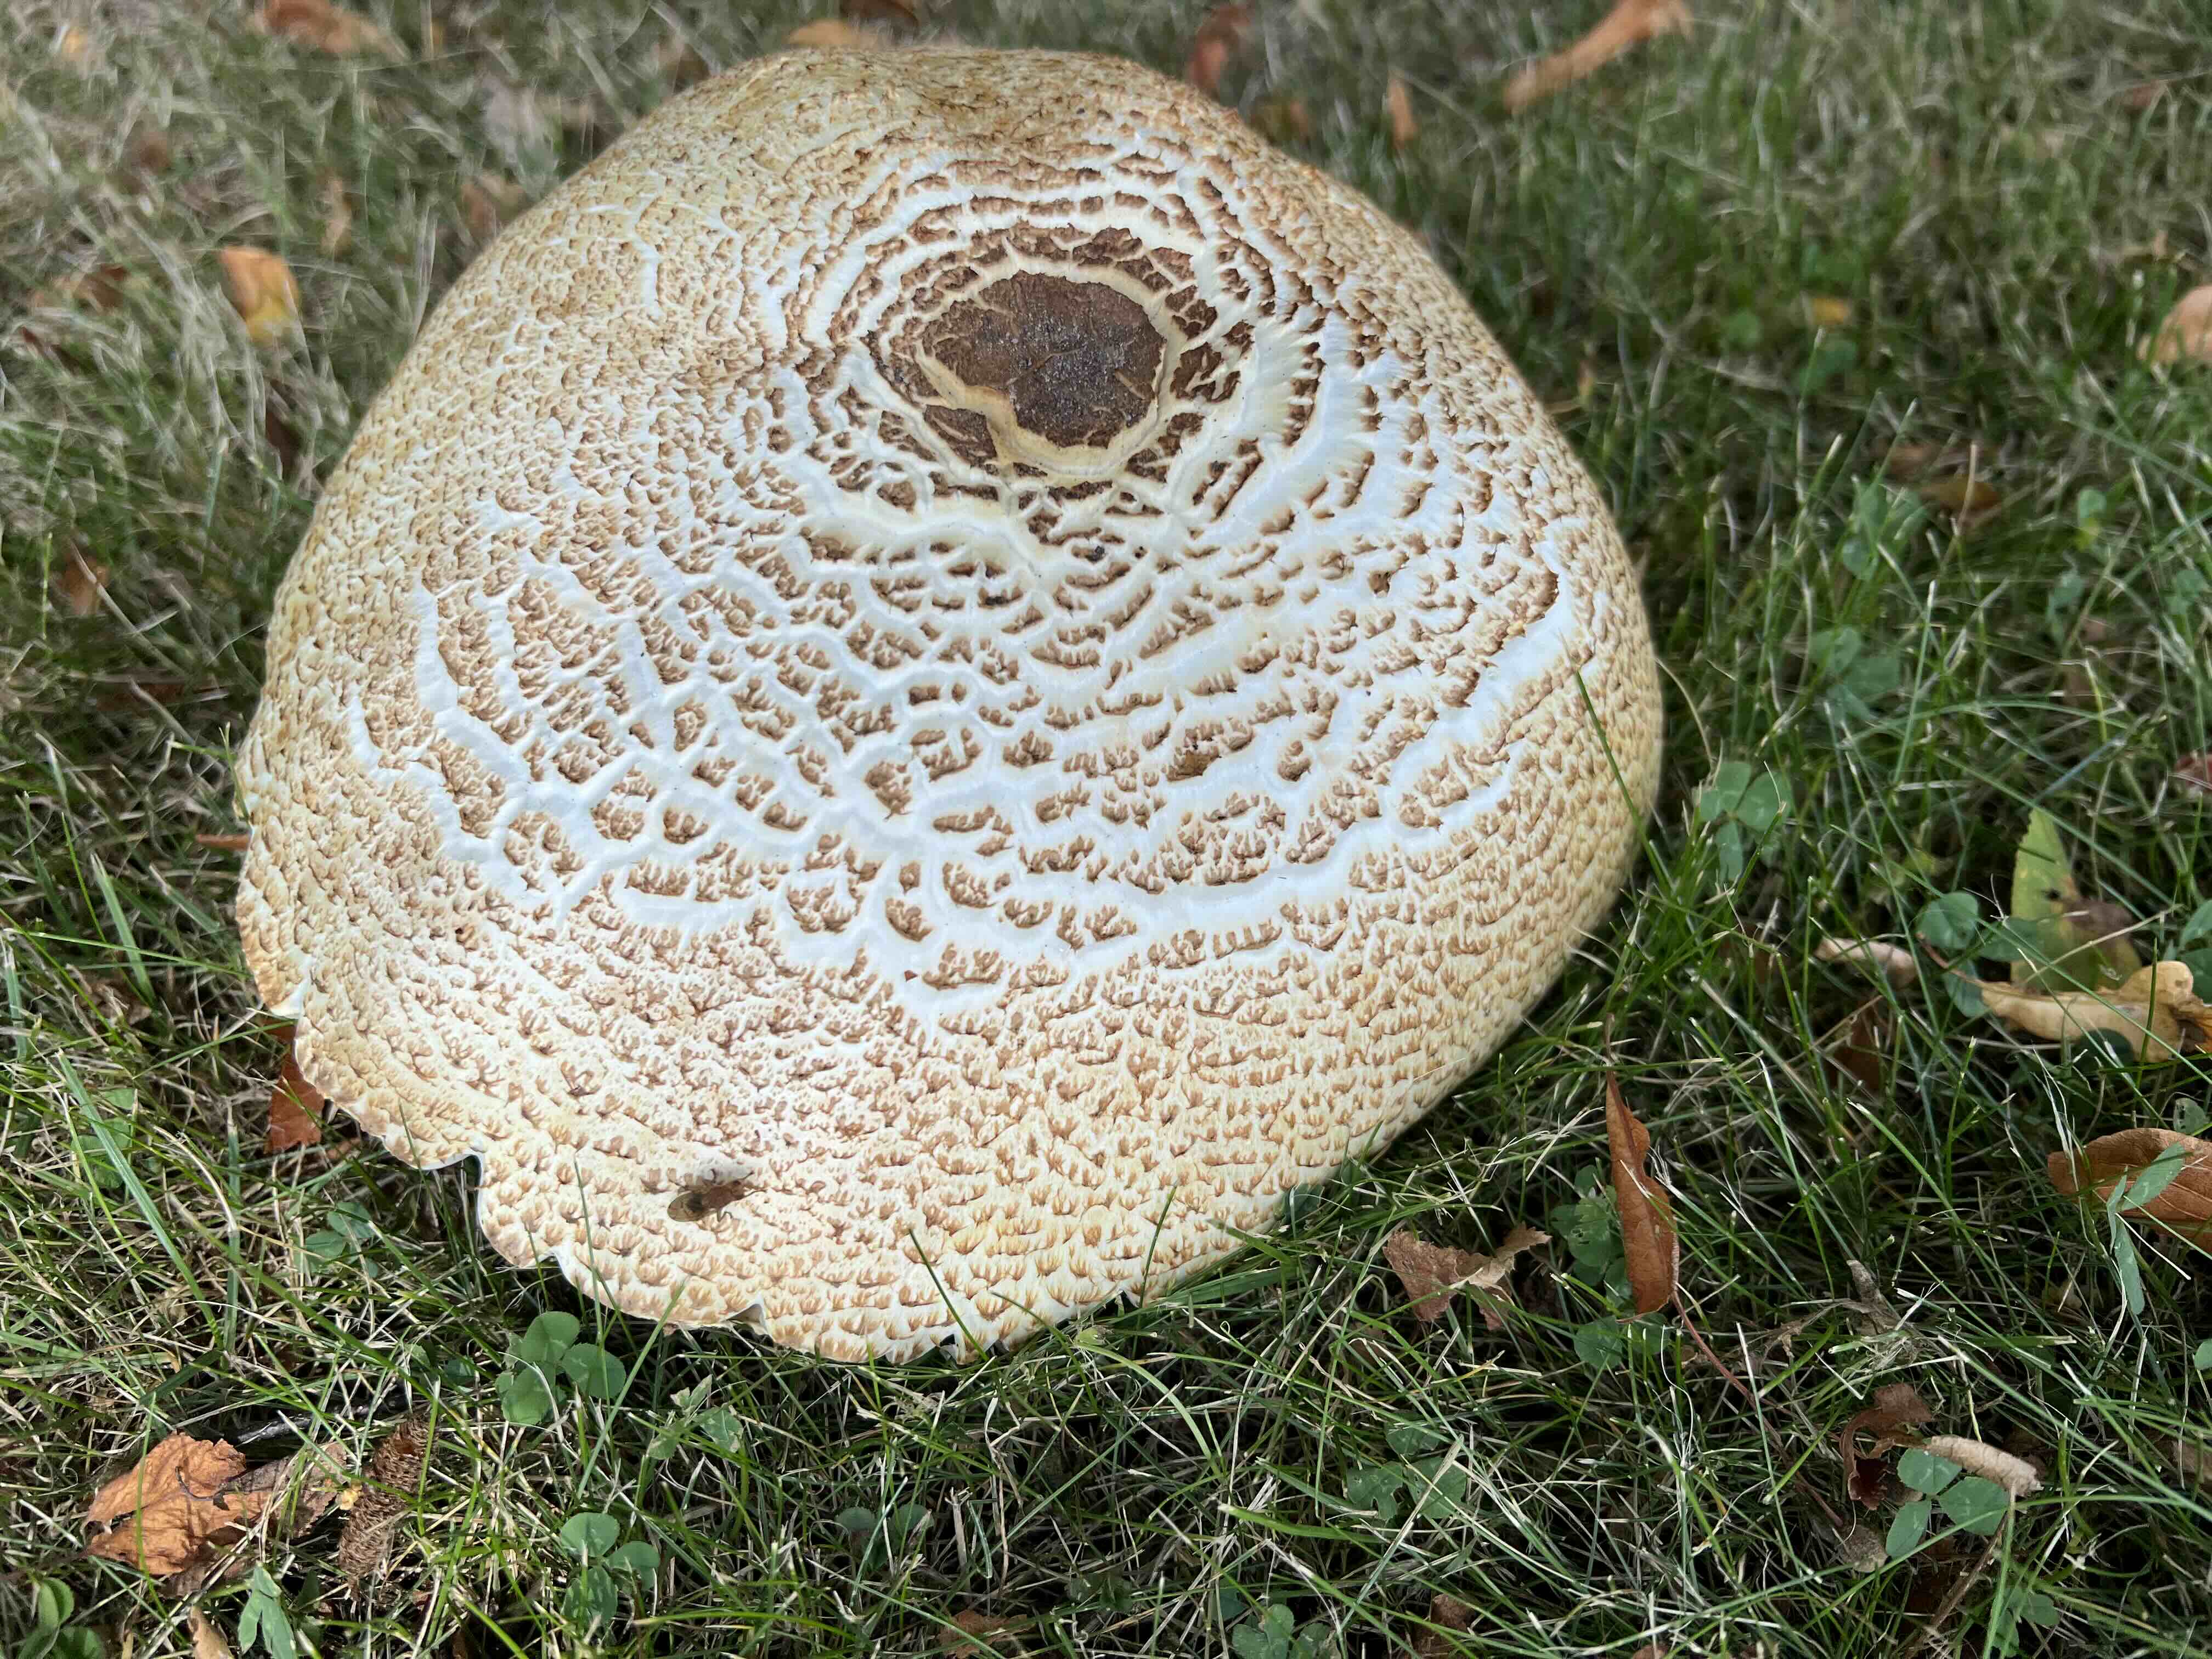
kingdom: Fungi
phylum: Basidiomycota
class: Agaricomycetes
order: Agaricales
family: Agaricaceae
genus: Agaricus
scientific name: Agaricus augustus
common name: prægtig champignon
